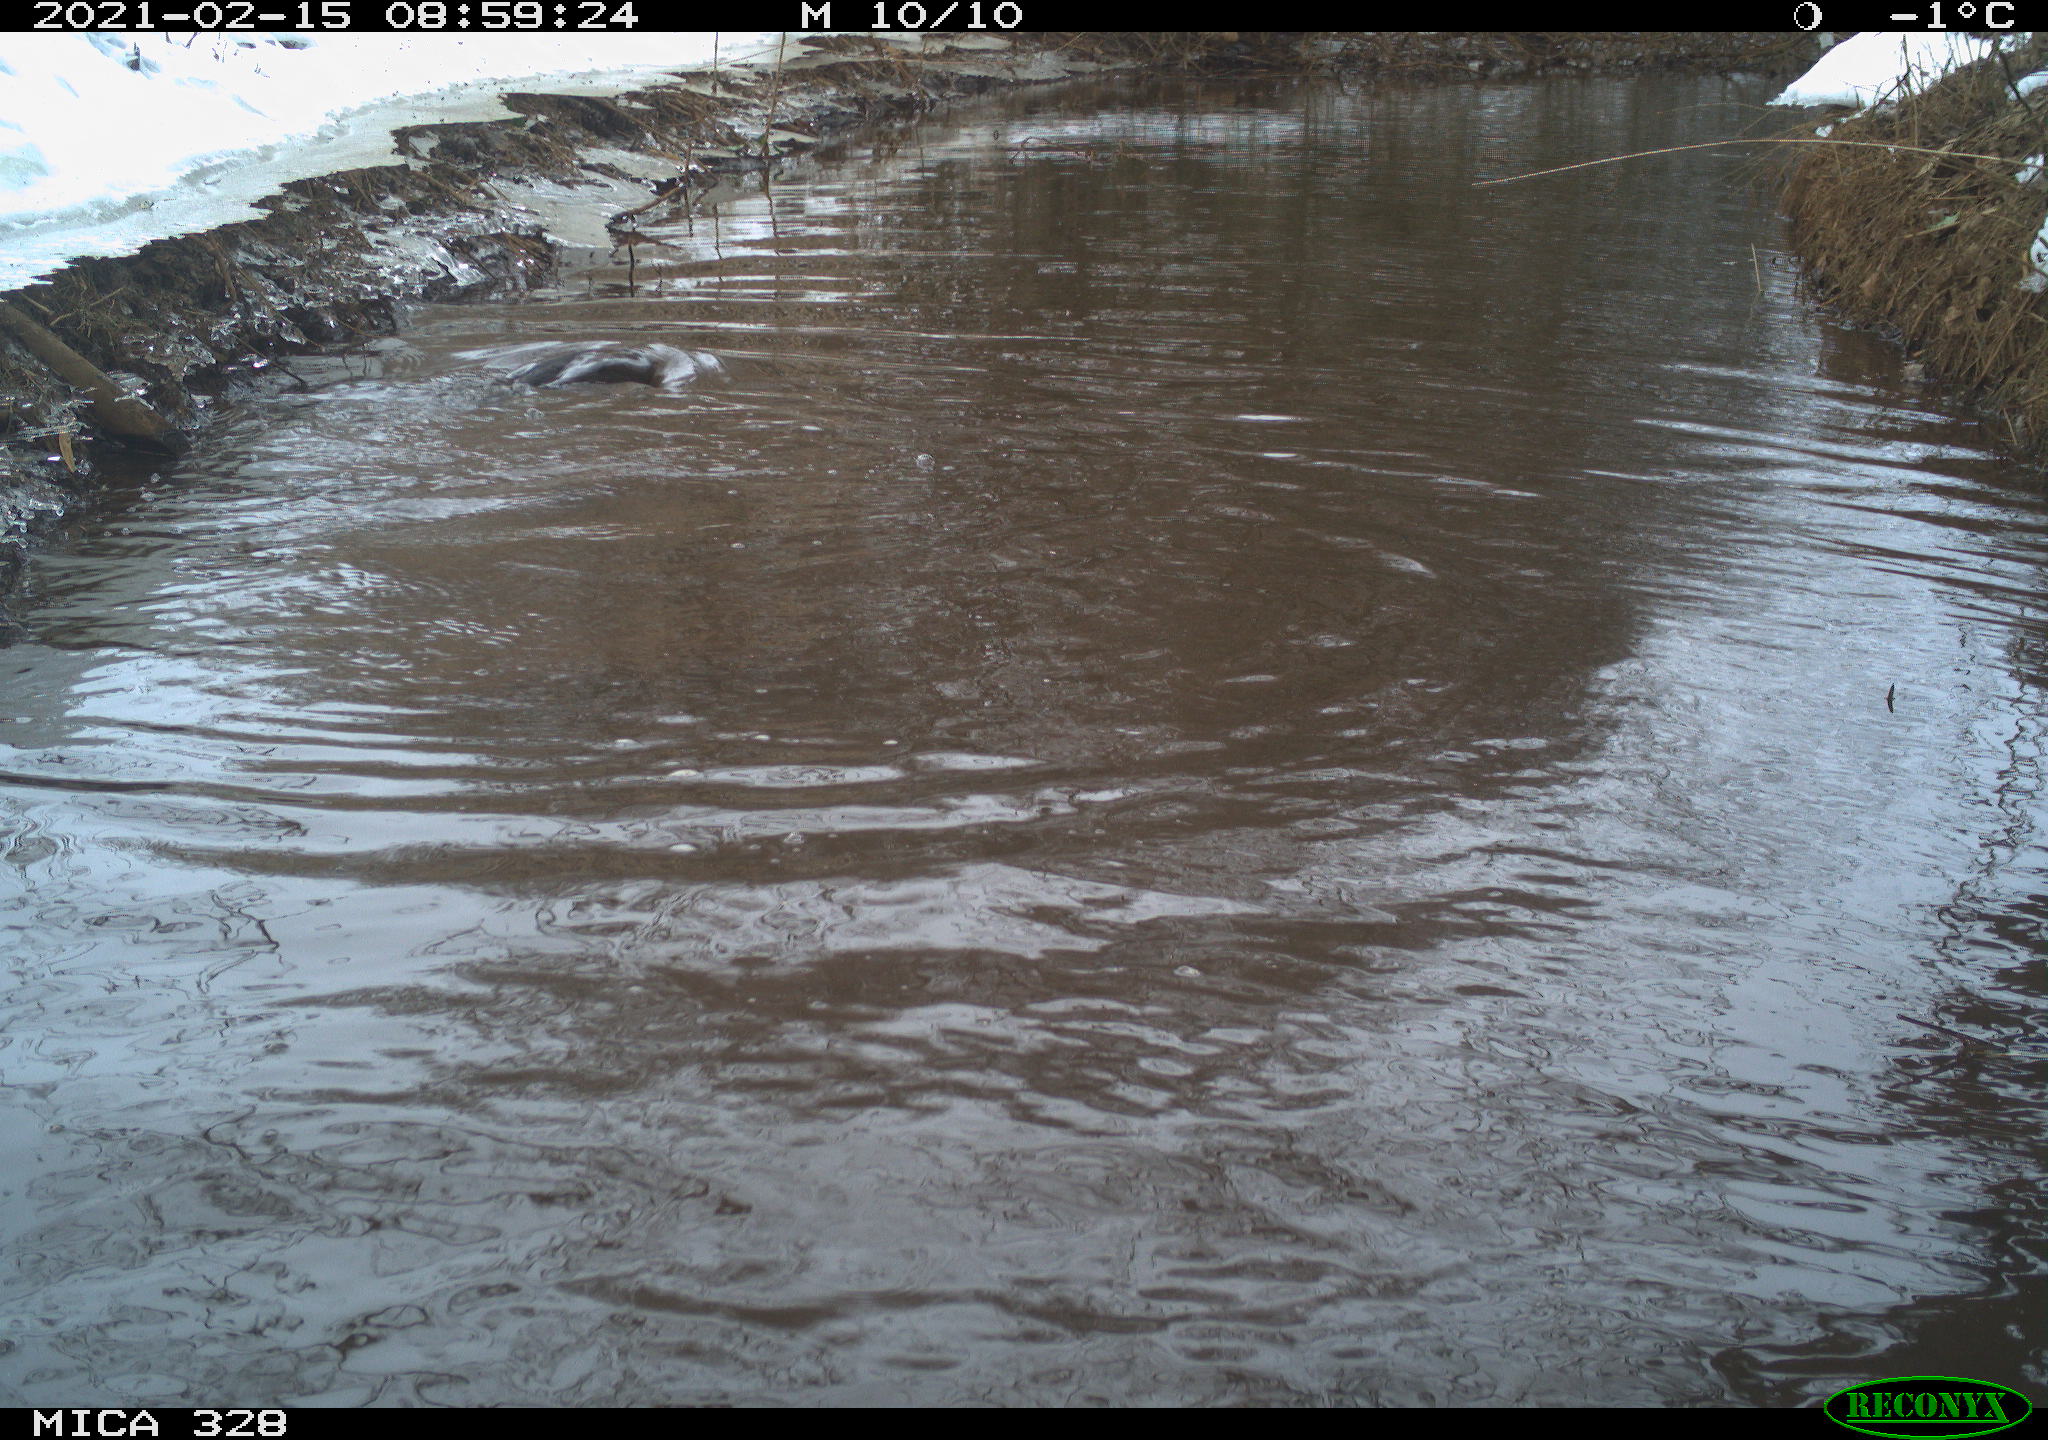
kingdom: Animalia
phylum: Chordata
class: Aves
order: Suliformes
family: Phalacrocoracidae
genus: Phalacrocorax
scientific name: Phalacrocorax carbo
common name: Great cormorant
